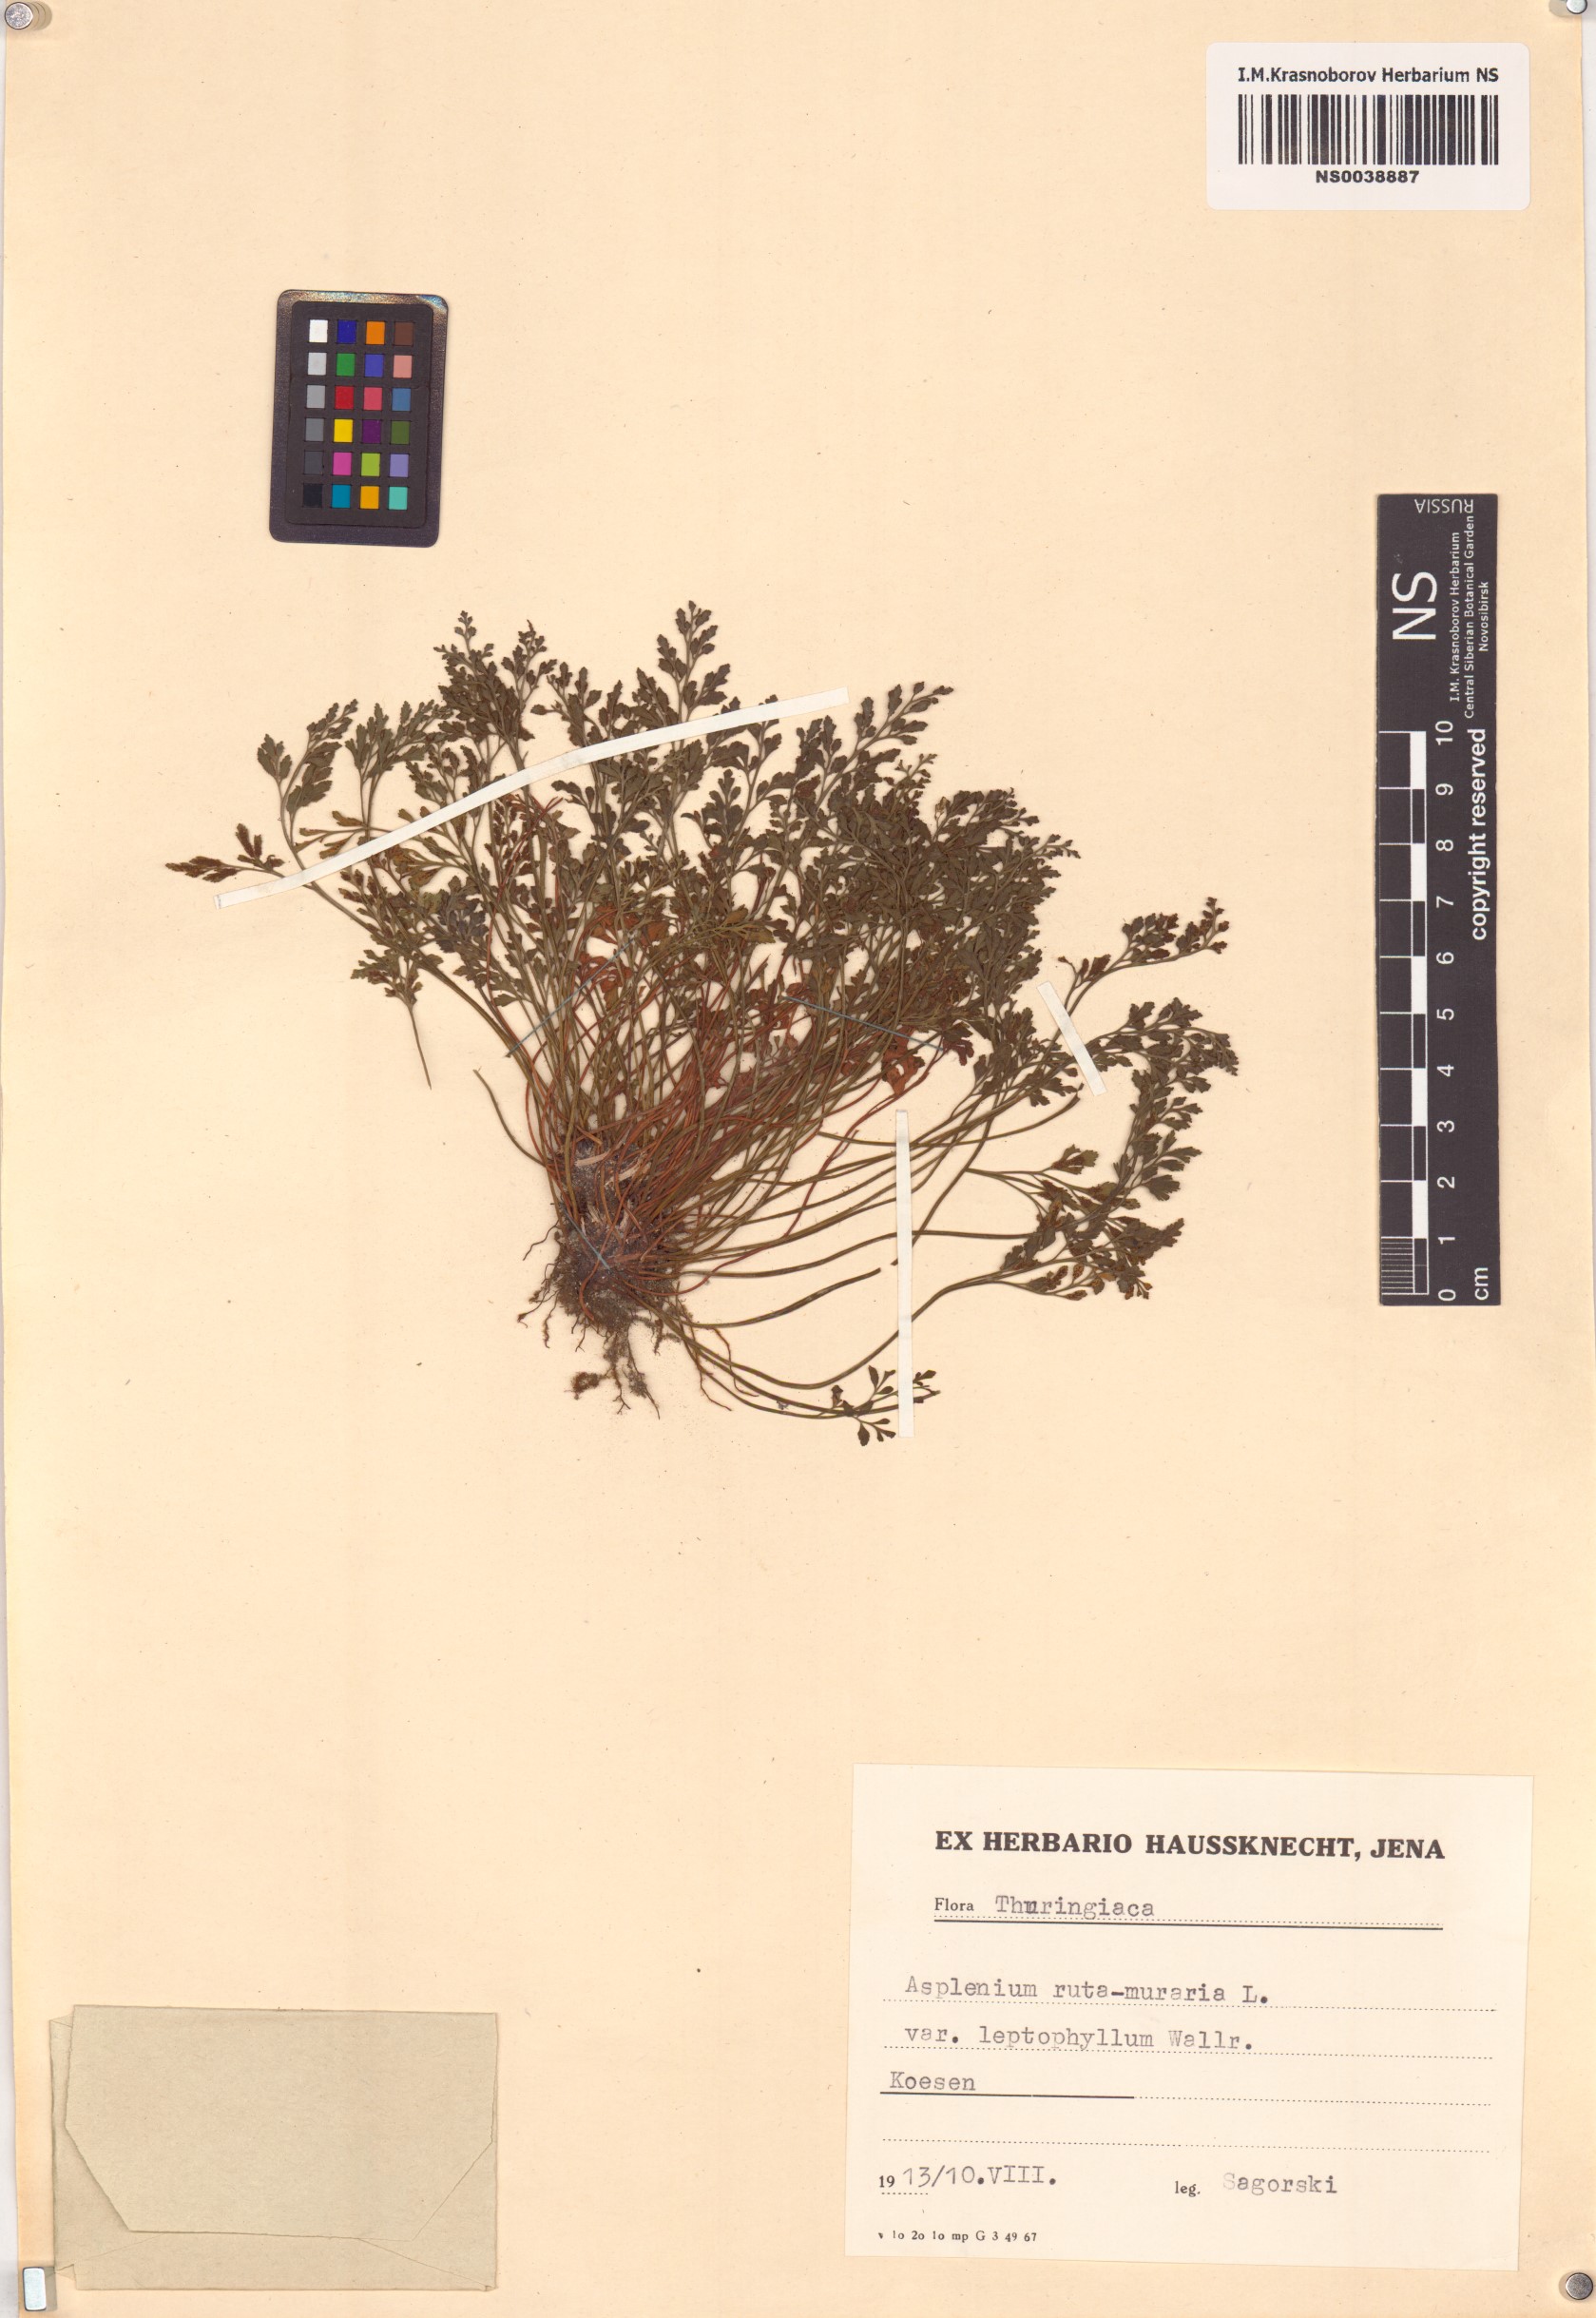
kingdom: Plantae
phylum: Tracheophyta
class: Polypodiopsida
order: Polypodiales
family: Aspleniaceae
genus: Asplenium
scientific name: Asplenium ruta-muraria
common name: Wall-rue
